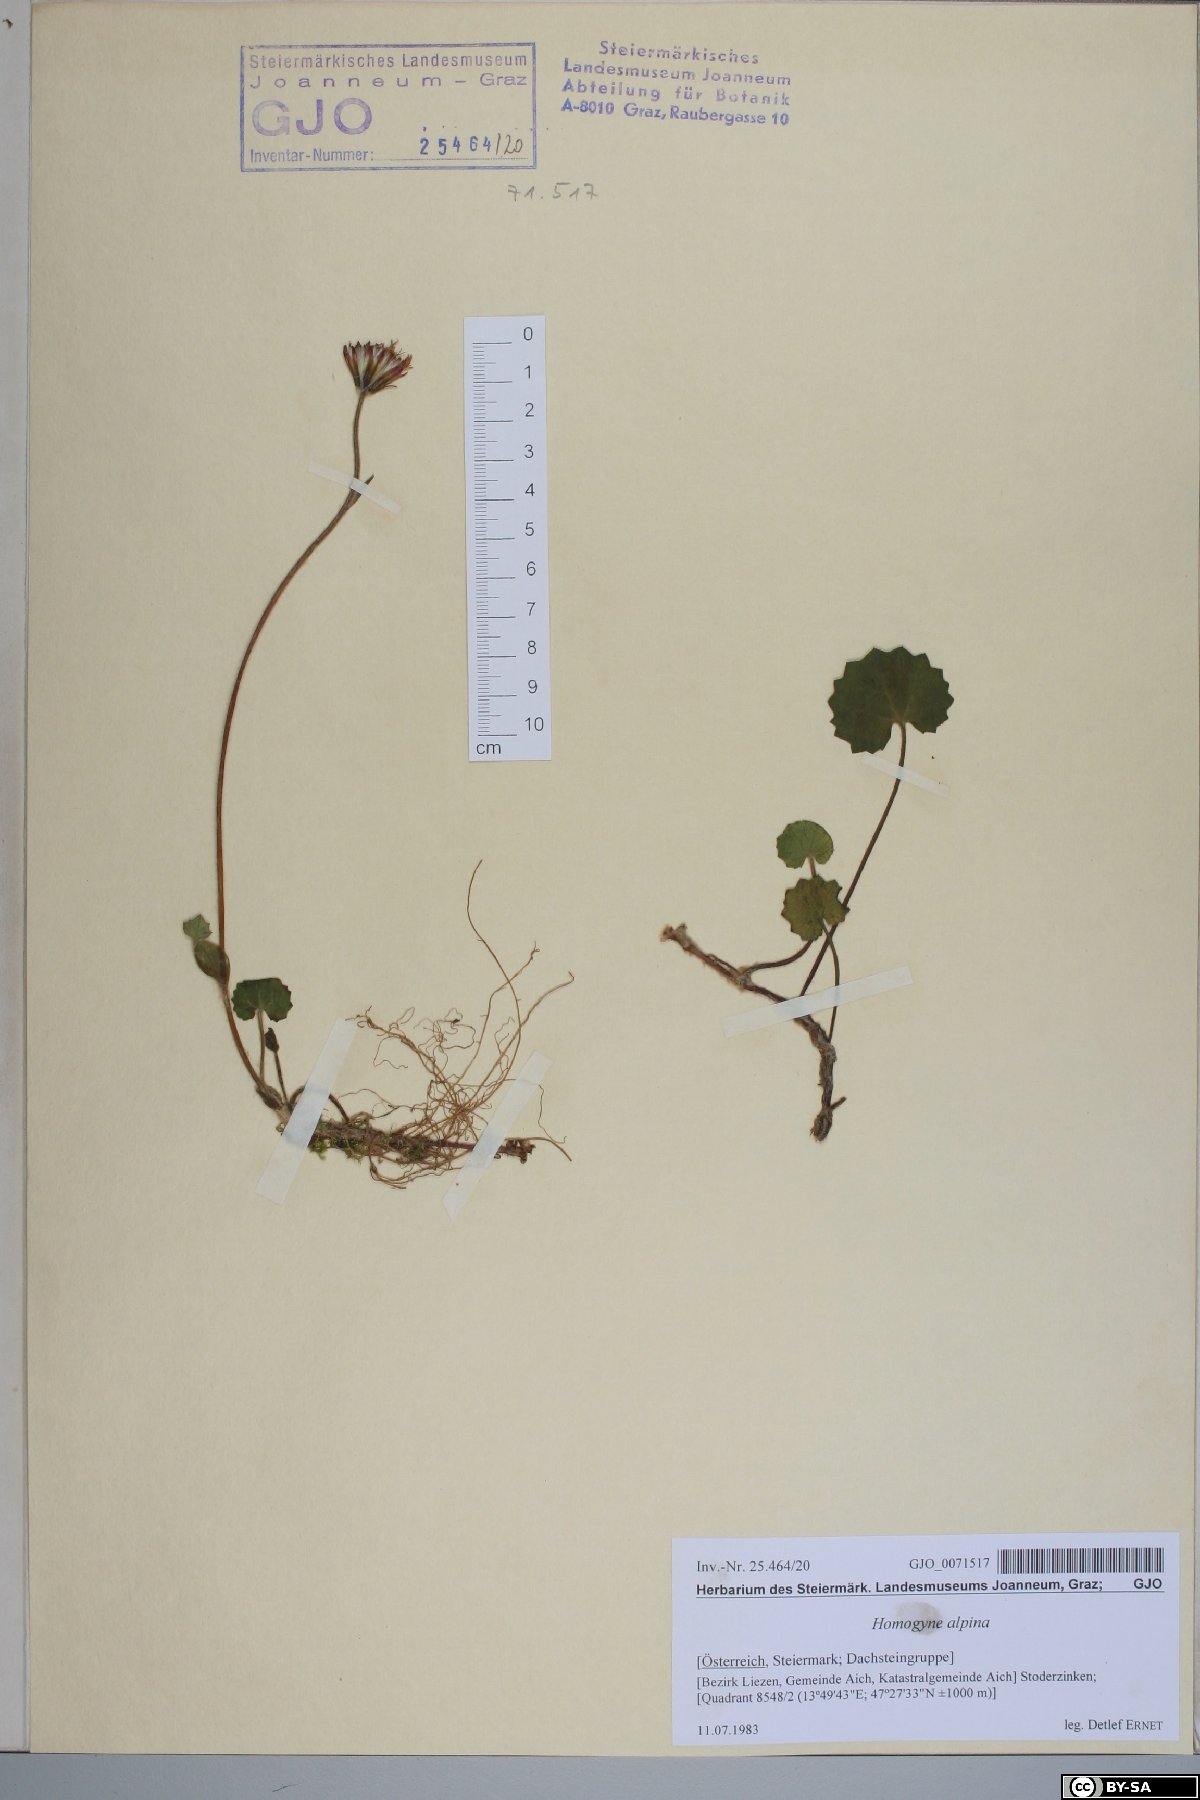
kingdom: Plantae
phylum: Tracheophyta
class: Magnoliopsida
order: Asterales
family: Asteraceae
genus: Homogyne
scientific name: Homogyne alpina
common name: Purple colt's-foot
